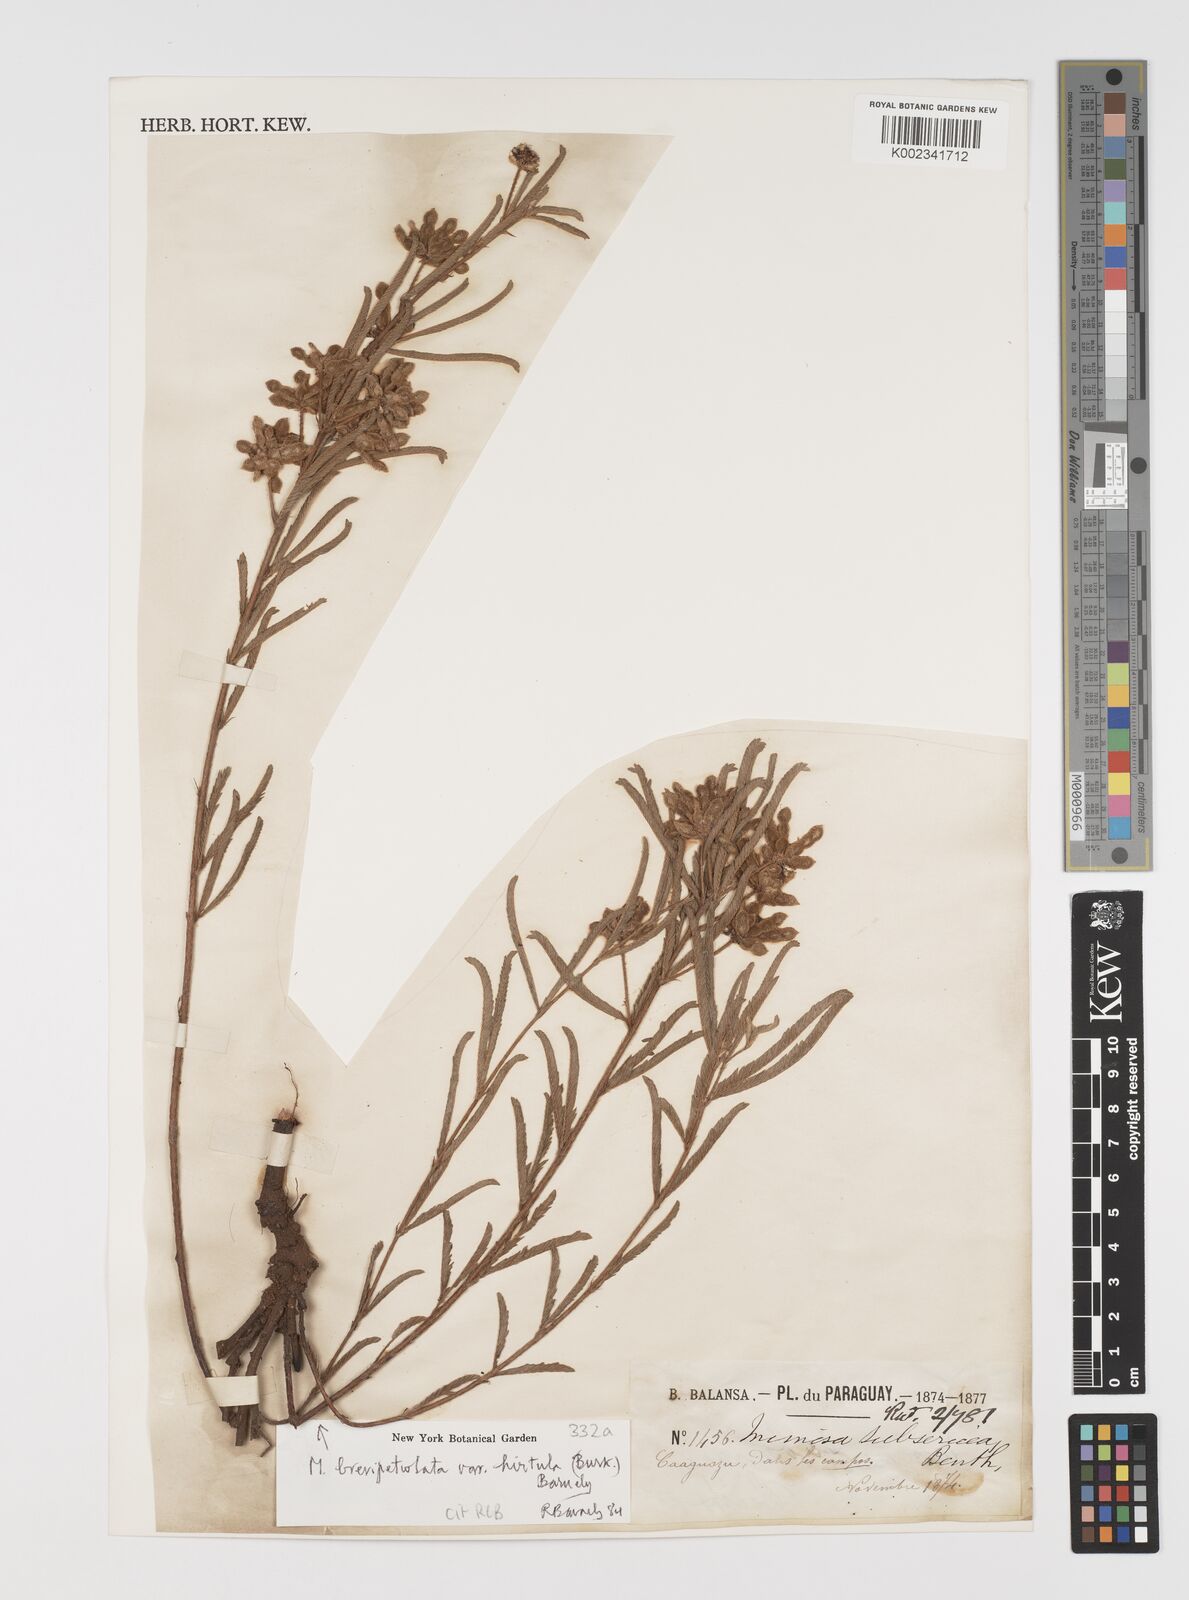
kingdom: Plantae
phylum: Tracheophyta
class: Magnoliopsida
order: Fabales
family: Fabaceae
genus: Mimosa
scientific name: Mimosa brevipetiolata
